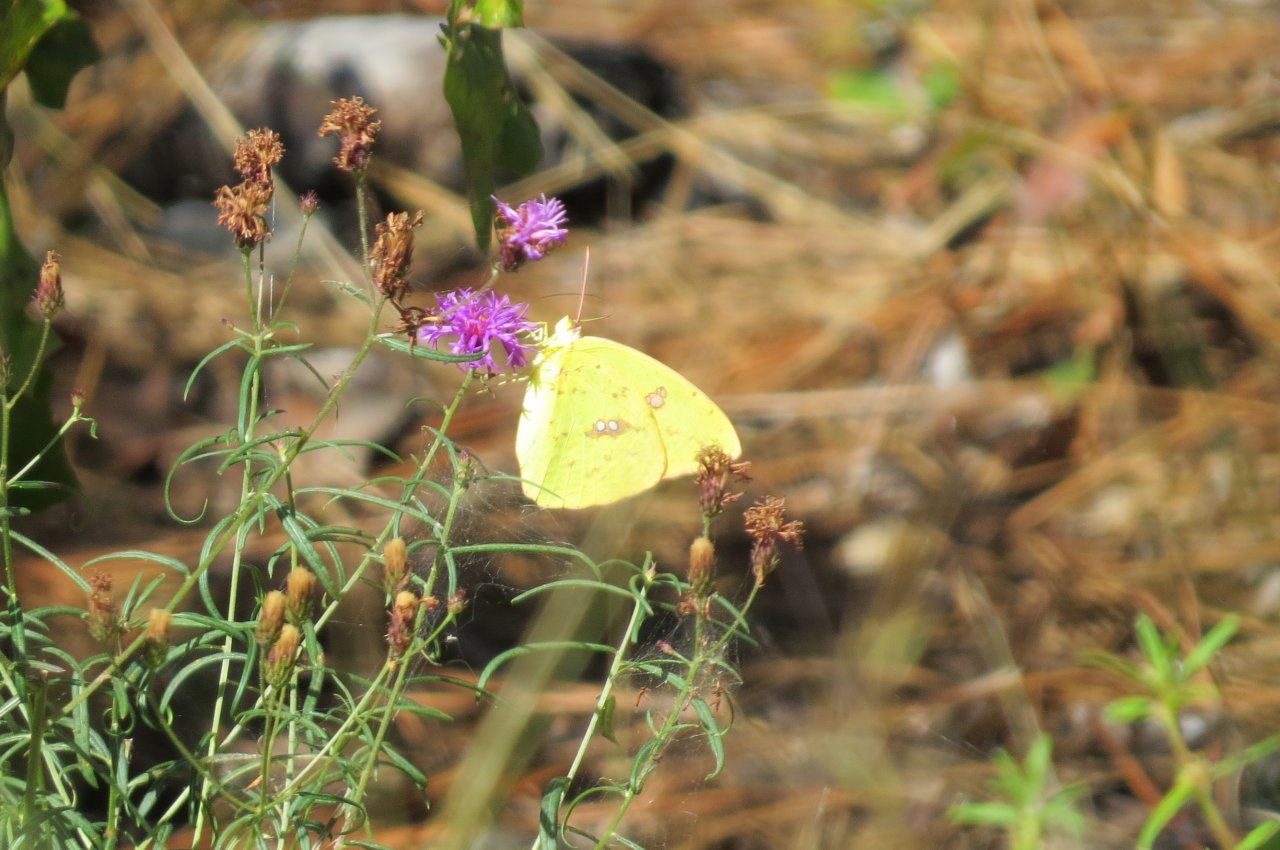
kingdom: Animalia
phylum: Arthropoda
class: Insecta
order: Lepidoptera
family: Pieridae
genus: Phoebis
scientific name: Phoebis sennae
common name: Cloudless Sulphur
